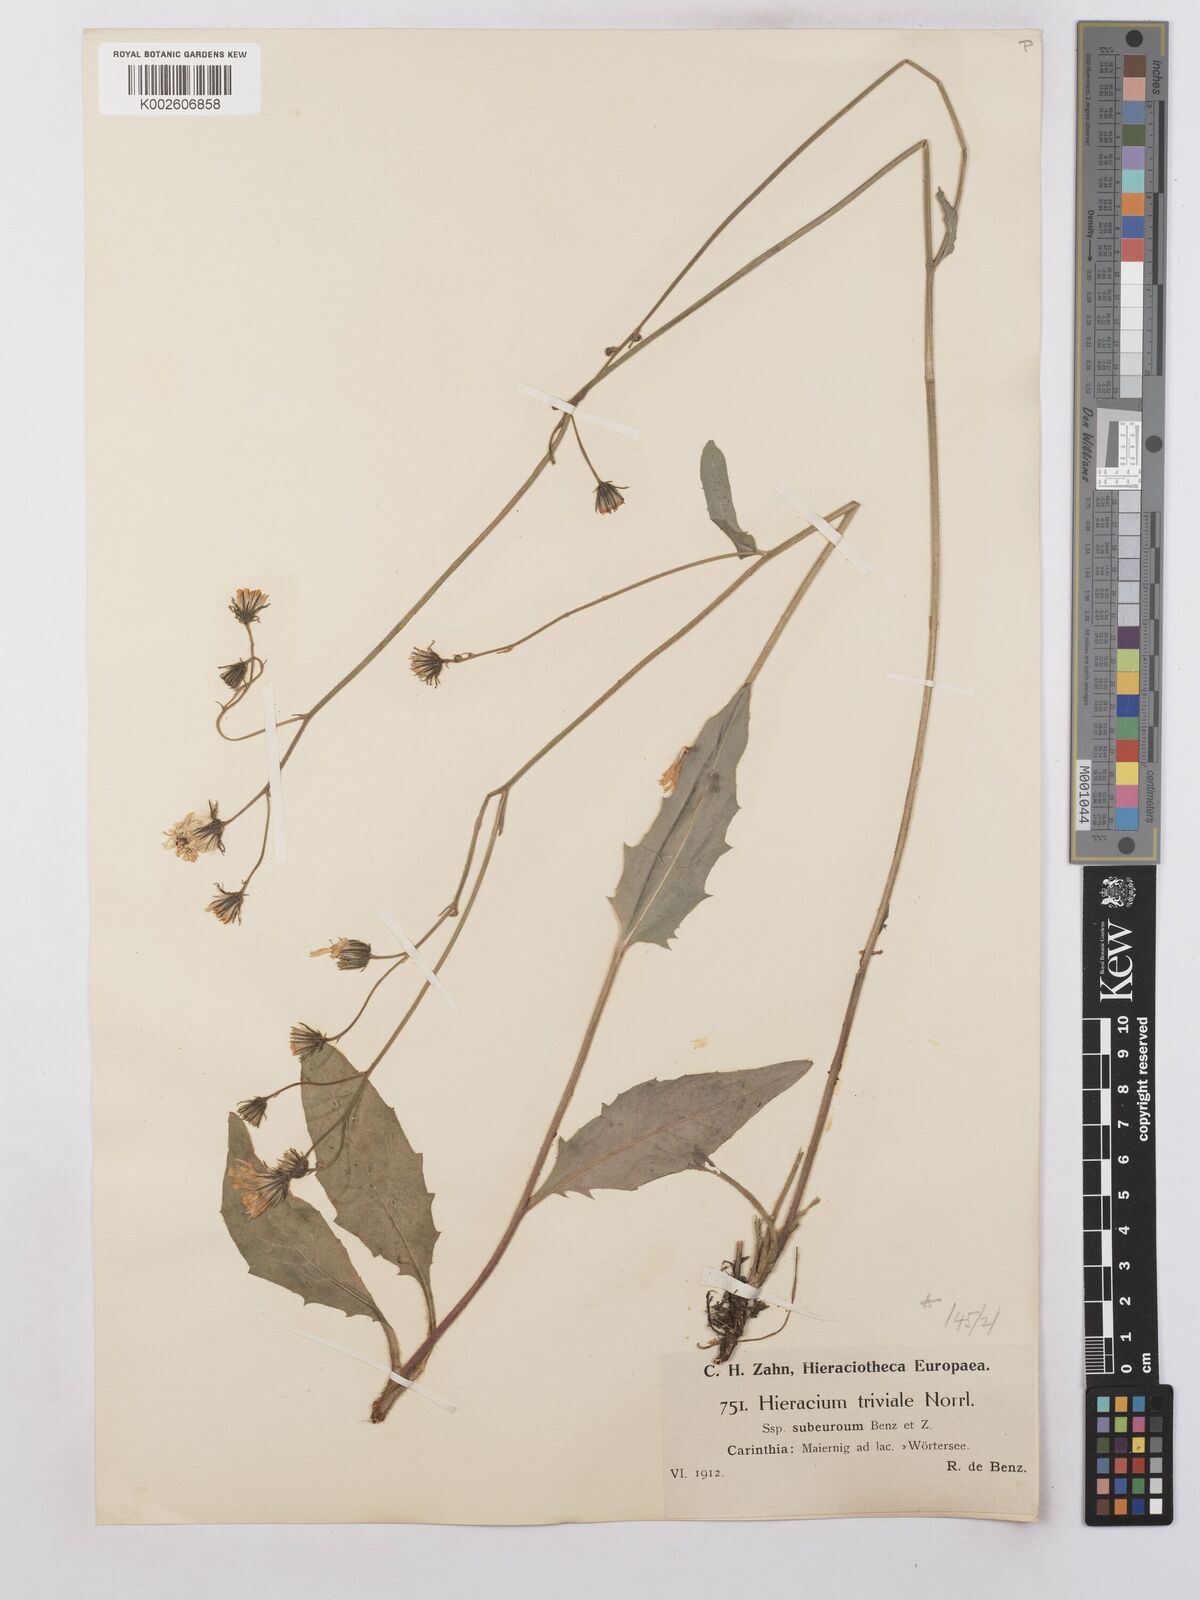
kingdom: Plantae
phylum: Tracheophyta
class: Magnoliopsida
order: Asterales
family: Asteraceae
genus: Hieracium
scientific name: Hieracium levicaule
